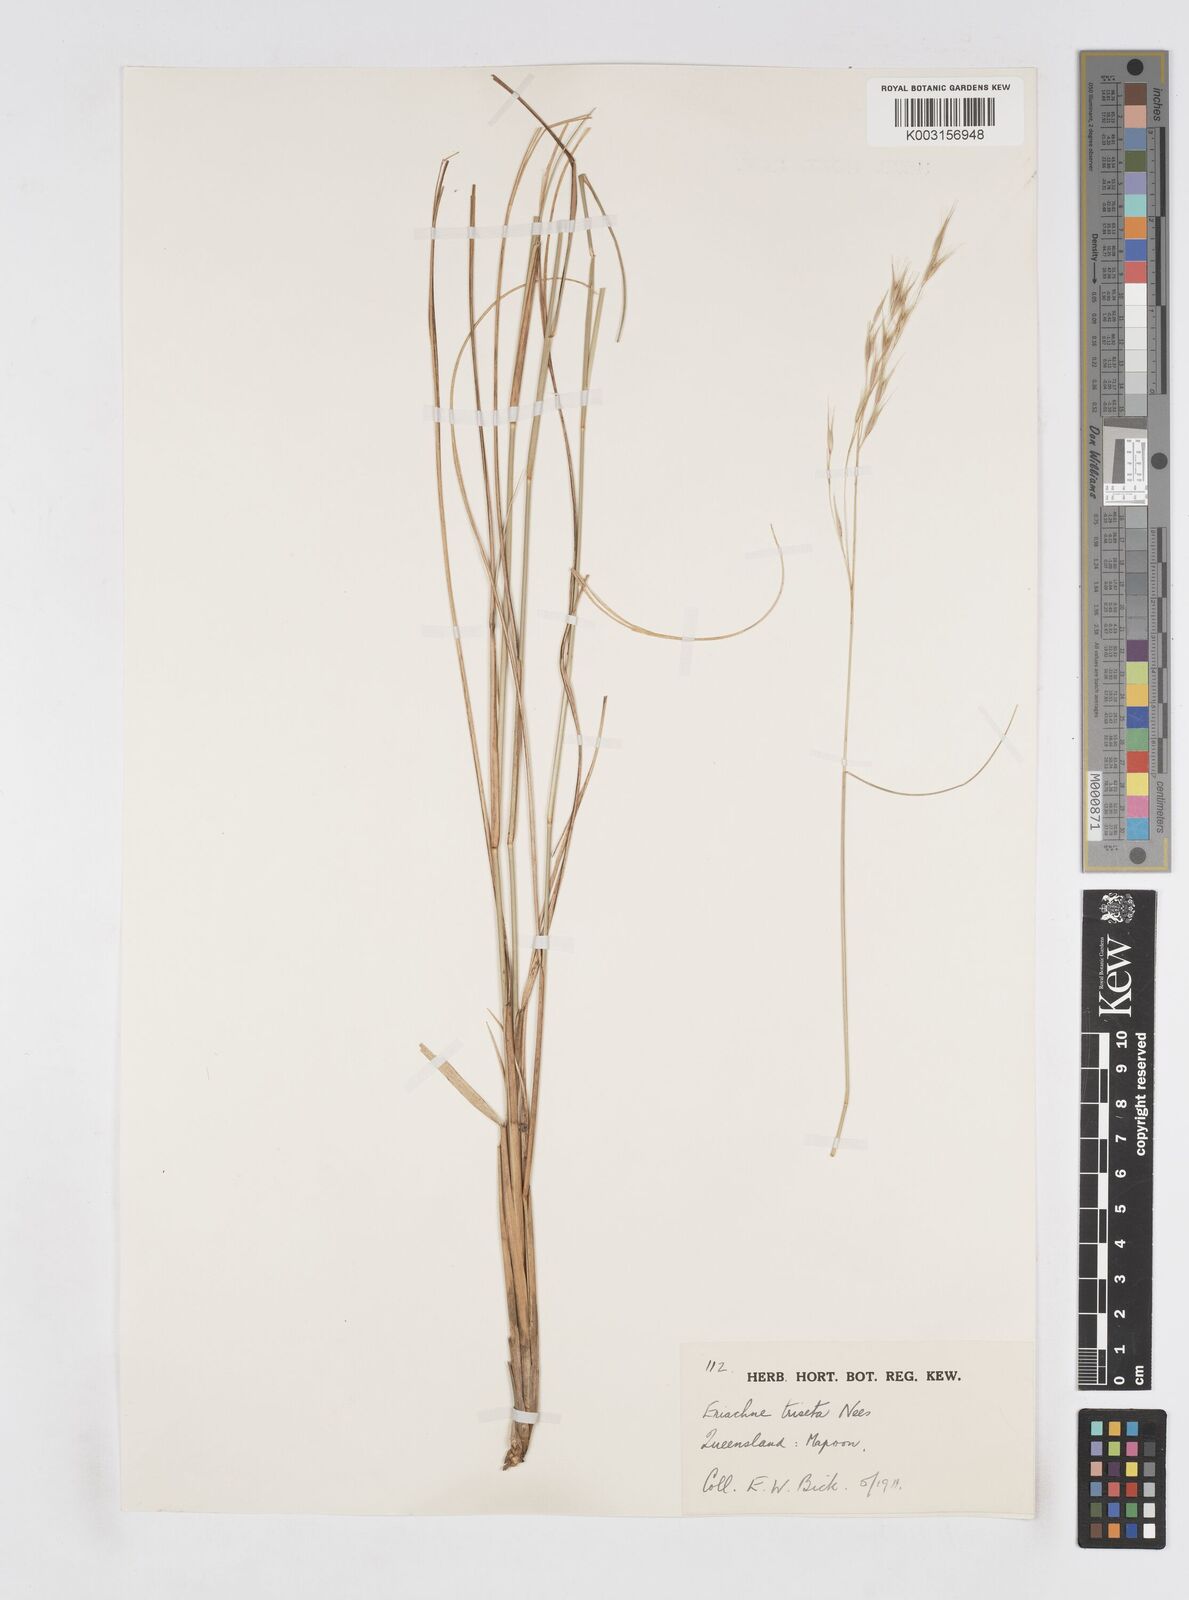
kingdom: Plantae
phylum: Tracheophyta
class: Liliopsida
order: Poales
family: Poaceae
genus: Eriachne
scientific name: Eriachne triseta
